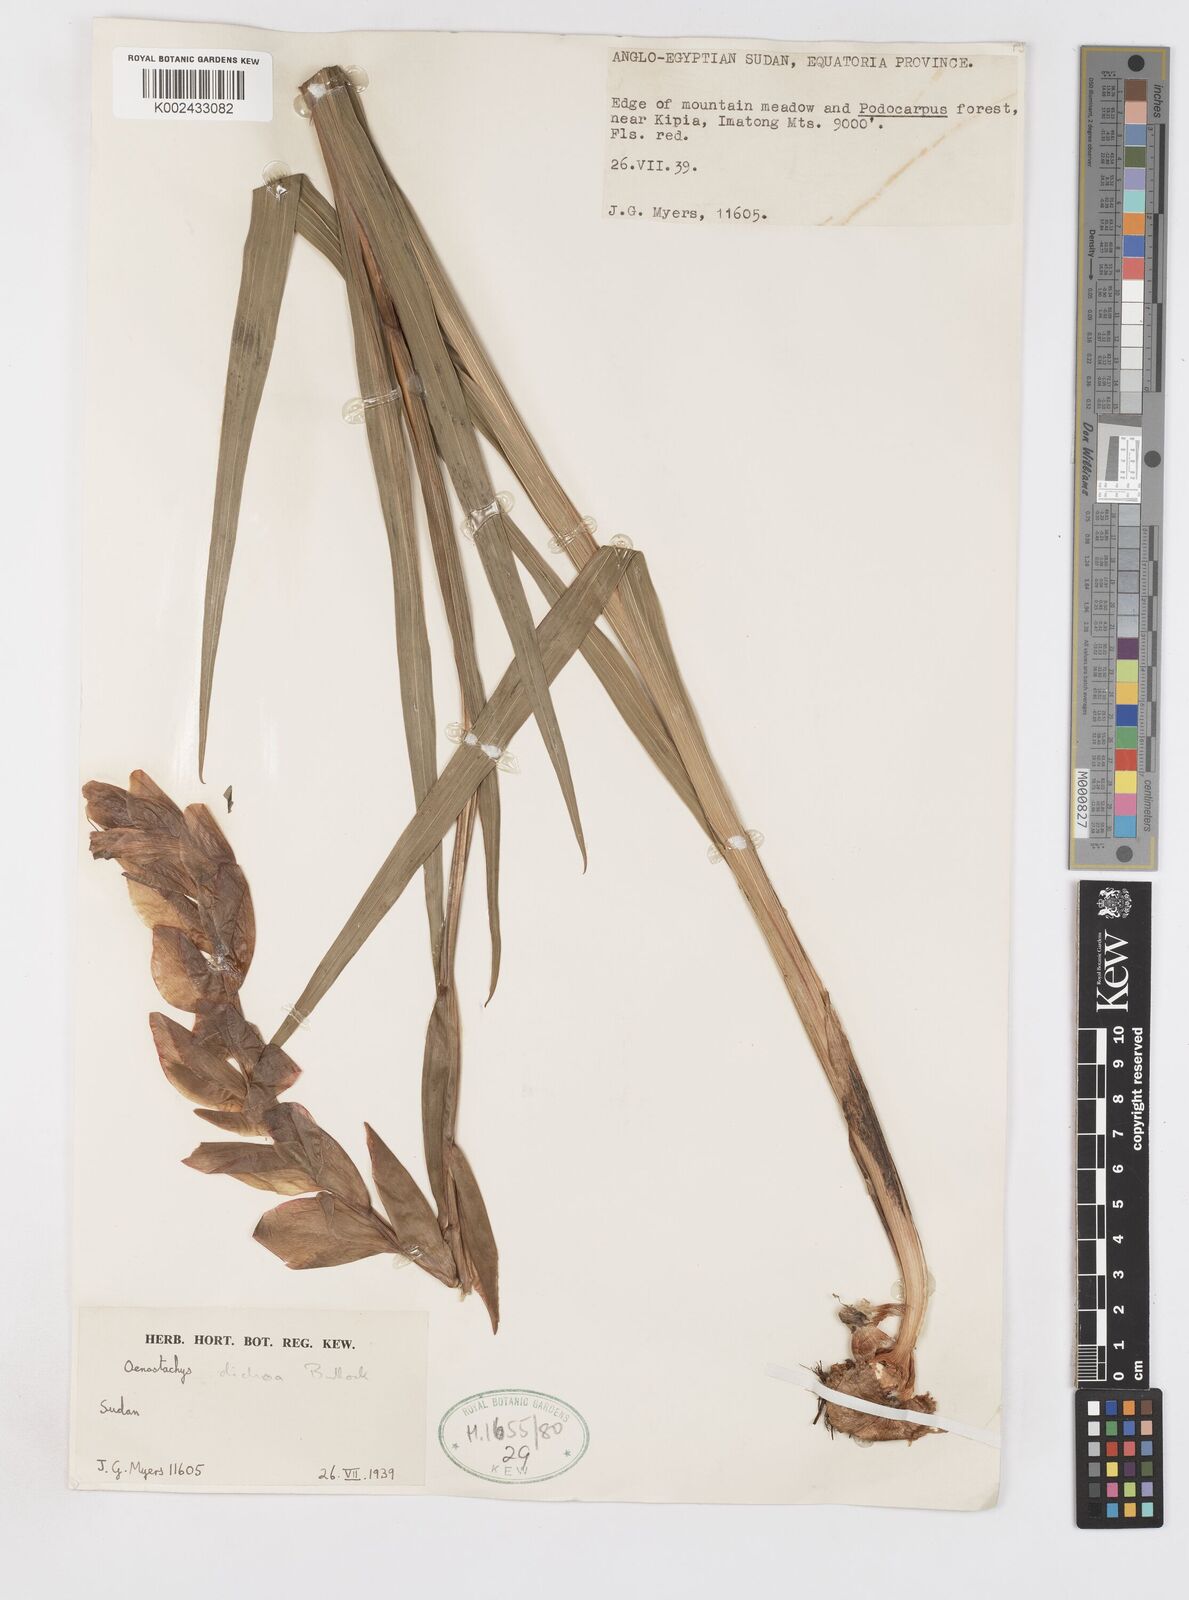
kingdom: Plantae
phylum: Tracheophyta
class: Liliopsida
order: Asparagales
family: Iridaceae
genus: Gladiolus
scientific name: Gladiolus dichrous
